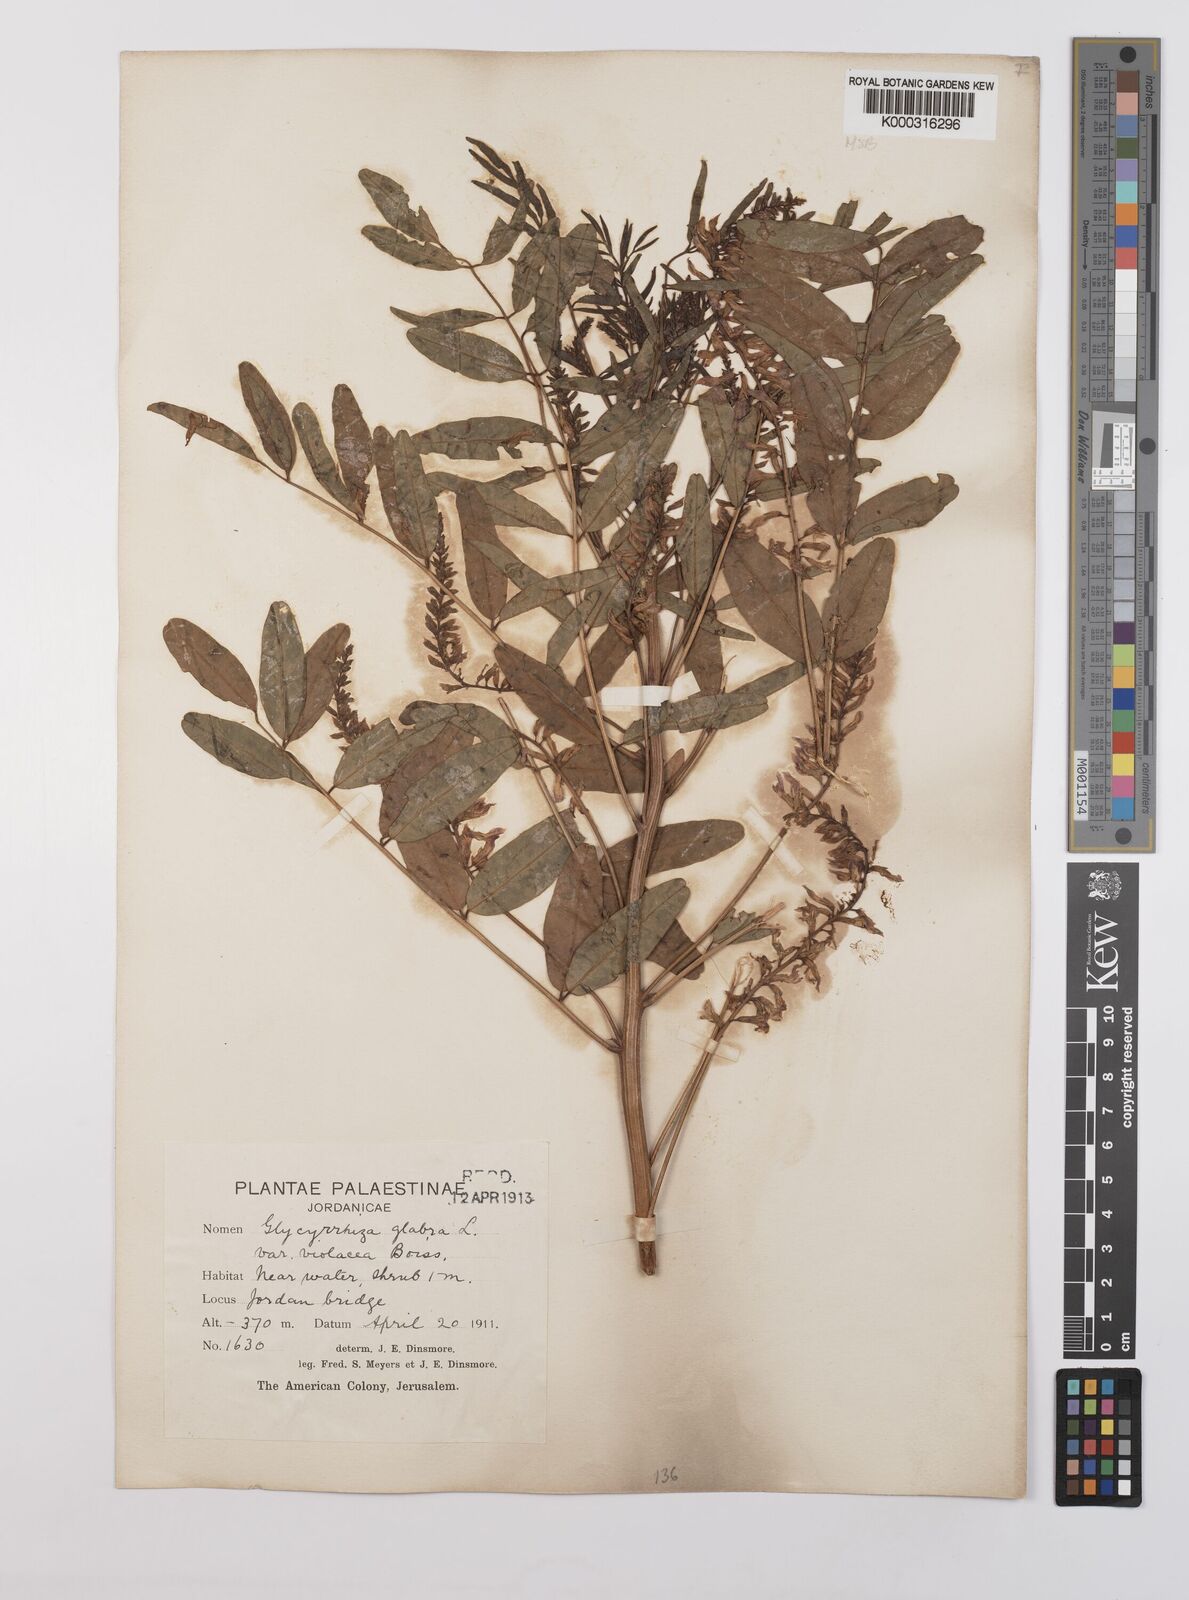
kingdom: Plantae
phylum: Tracheophyta
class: Magnoliopsida
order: Fabales
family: Fabaceae
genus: Glycyrrhiza
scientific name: Glycyrrhiza glabra
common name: Liquorice
